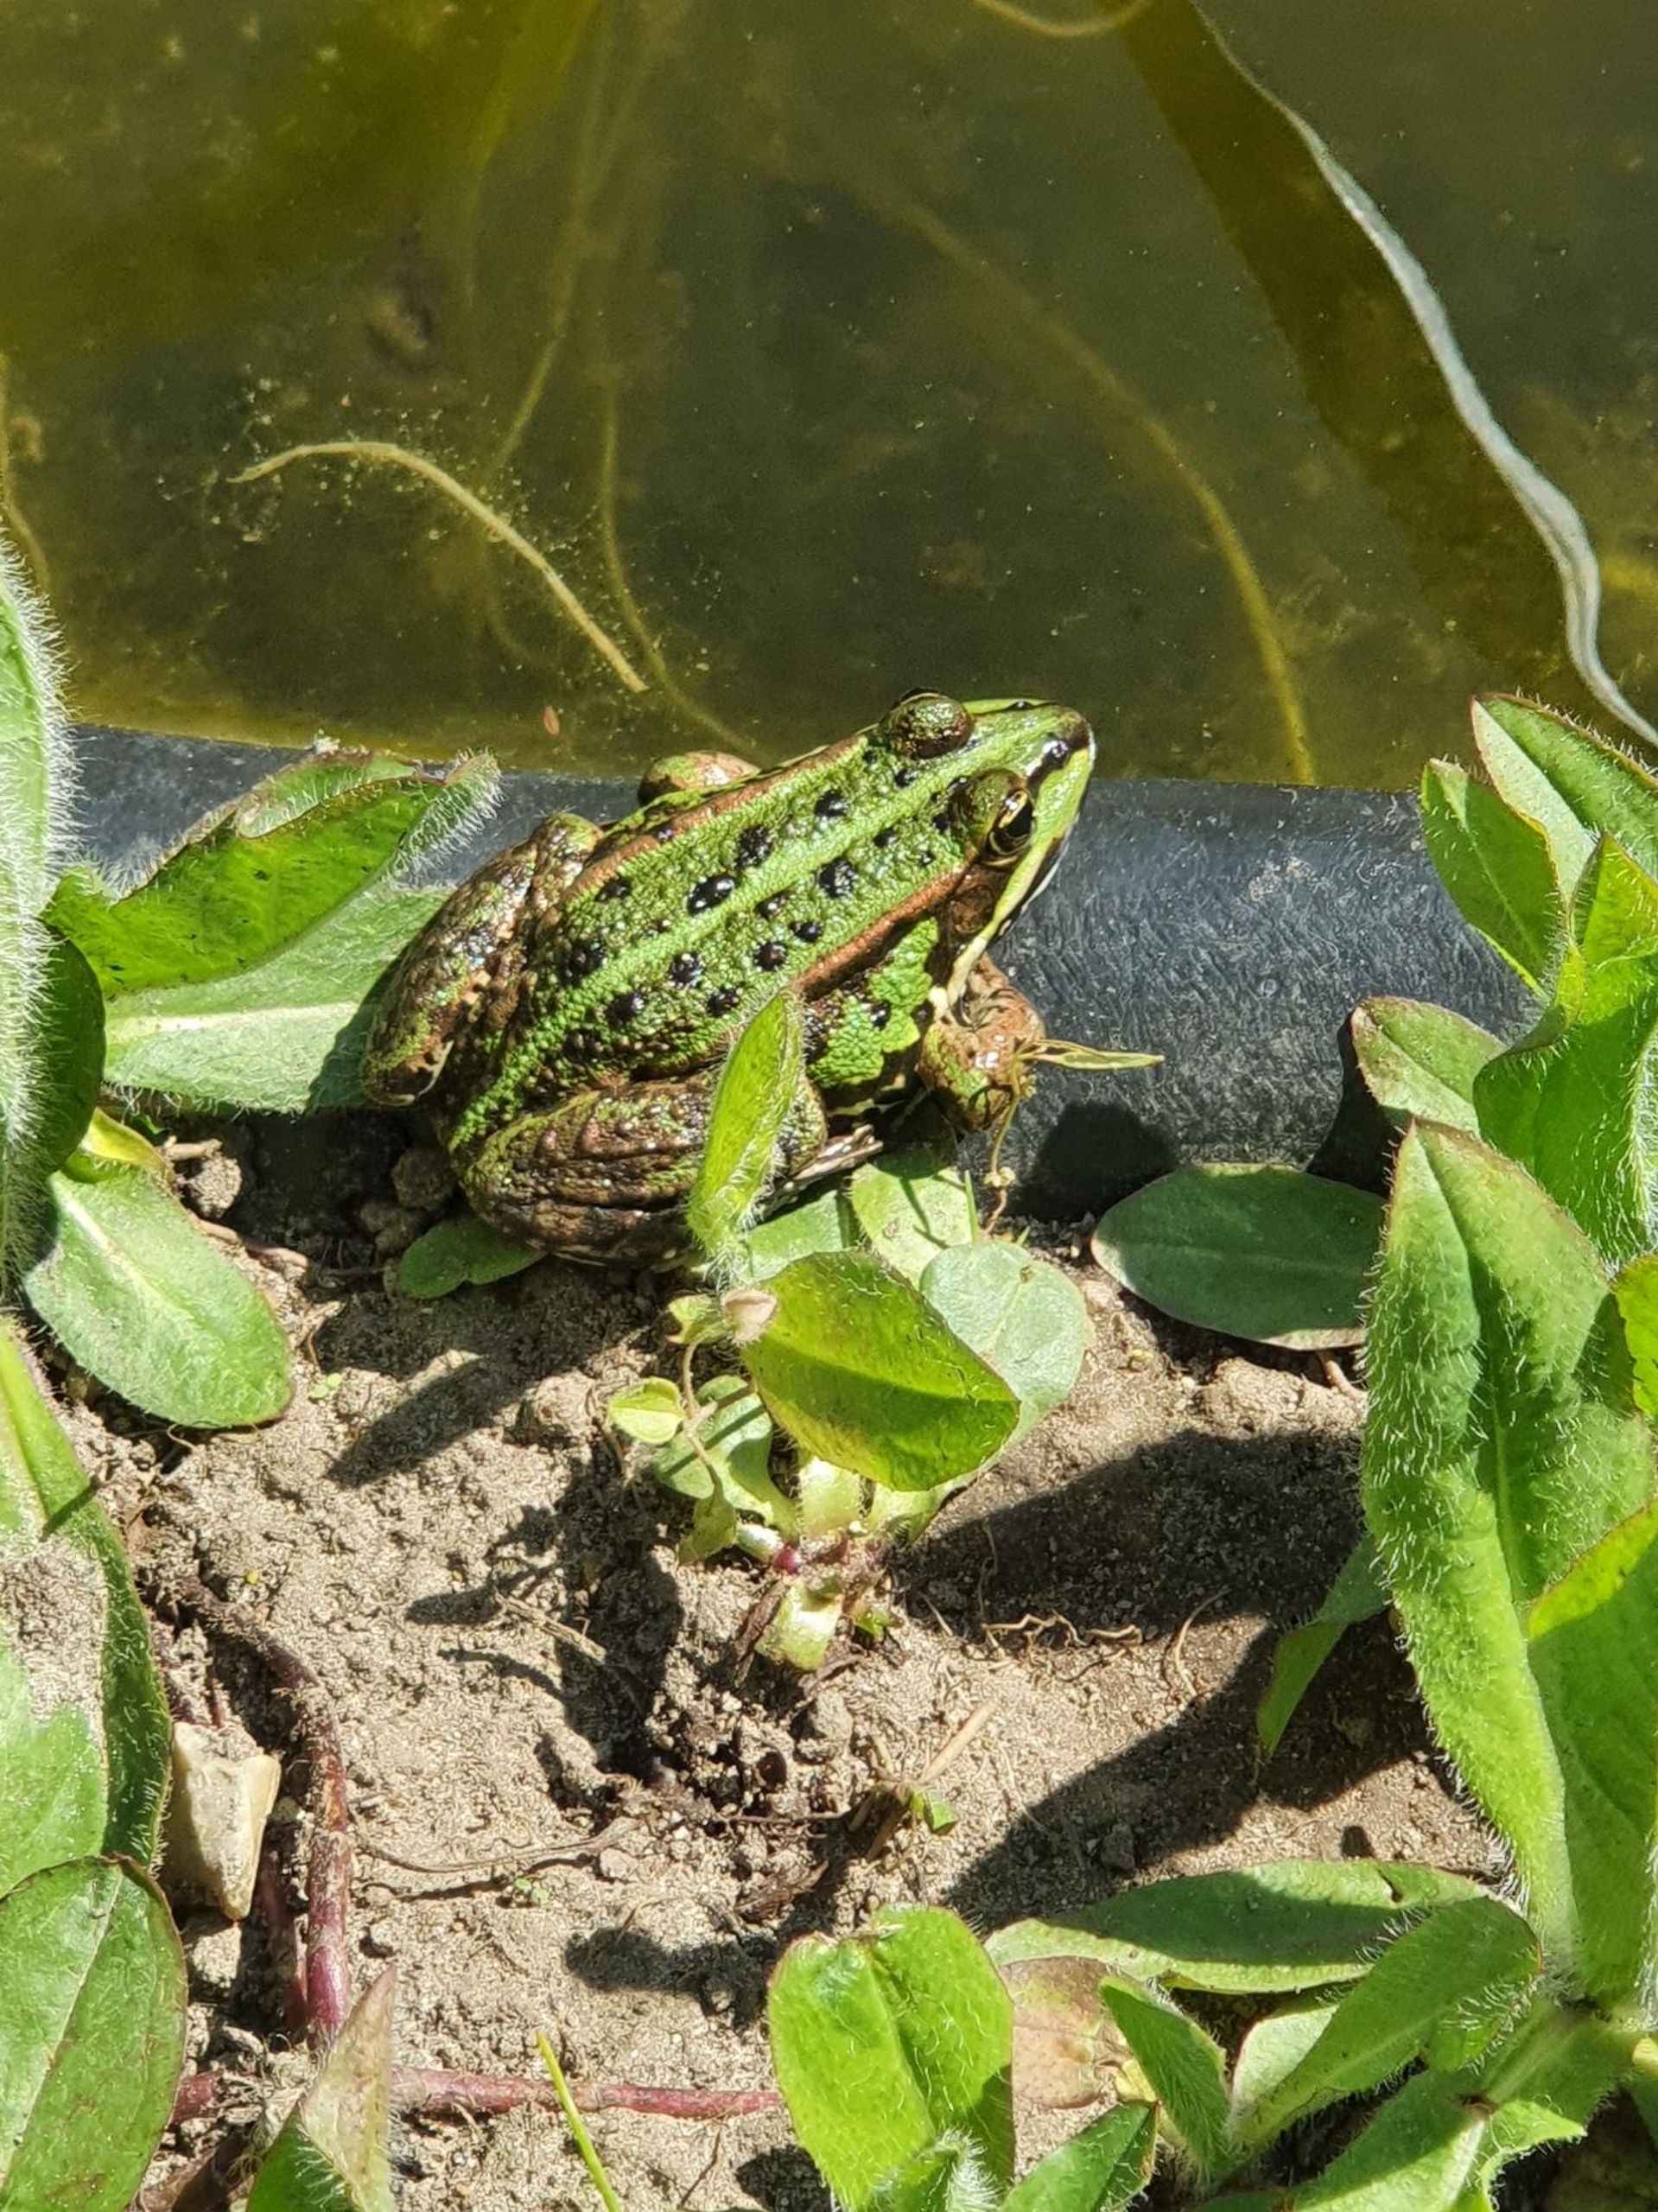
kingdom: Animalia
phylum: Chordata
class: Amphibia
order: Anura
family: Ranidae
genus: Pelophylax
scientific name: Pelophylax lessonae
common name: Grøn frø
